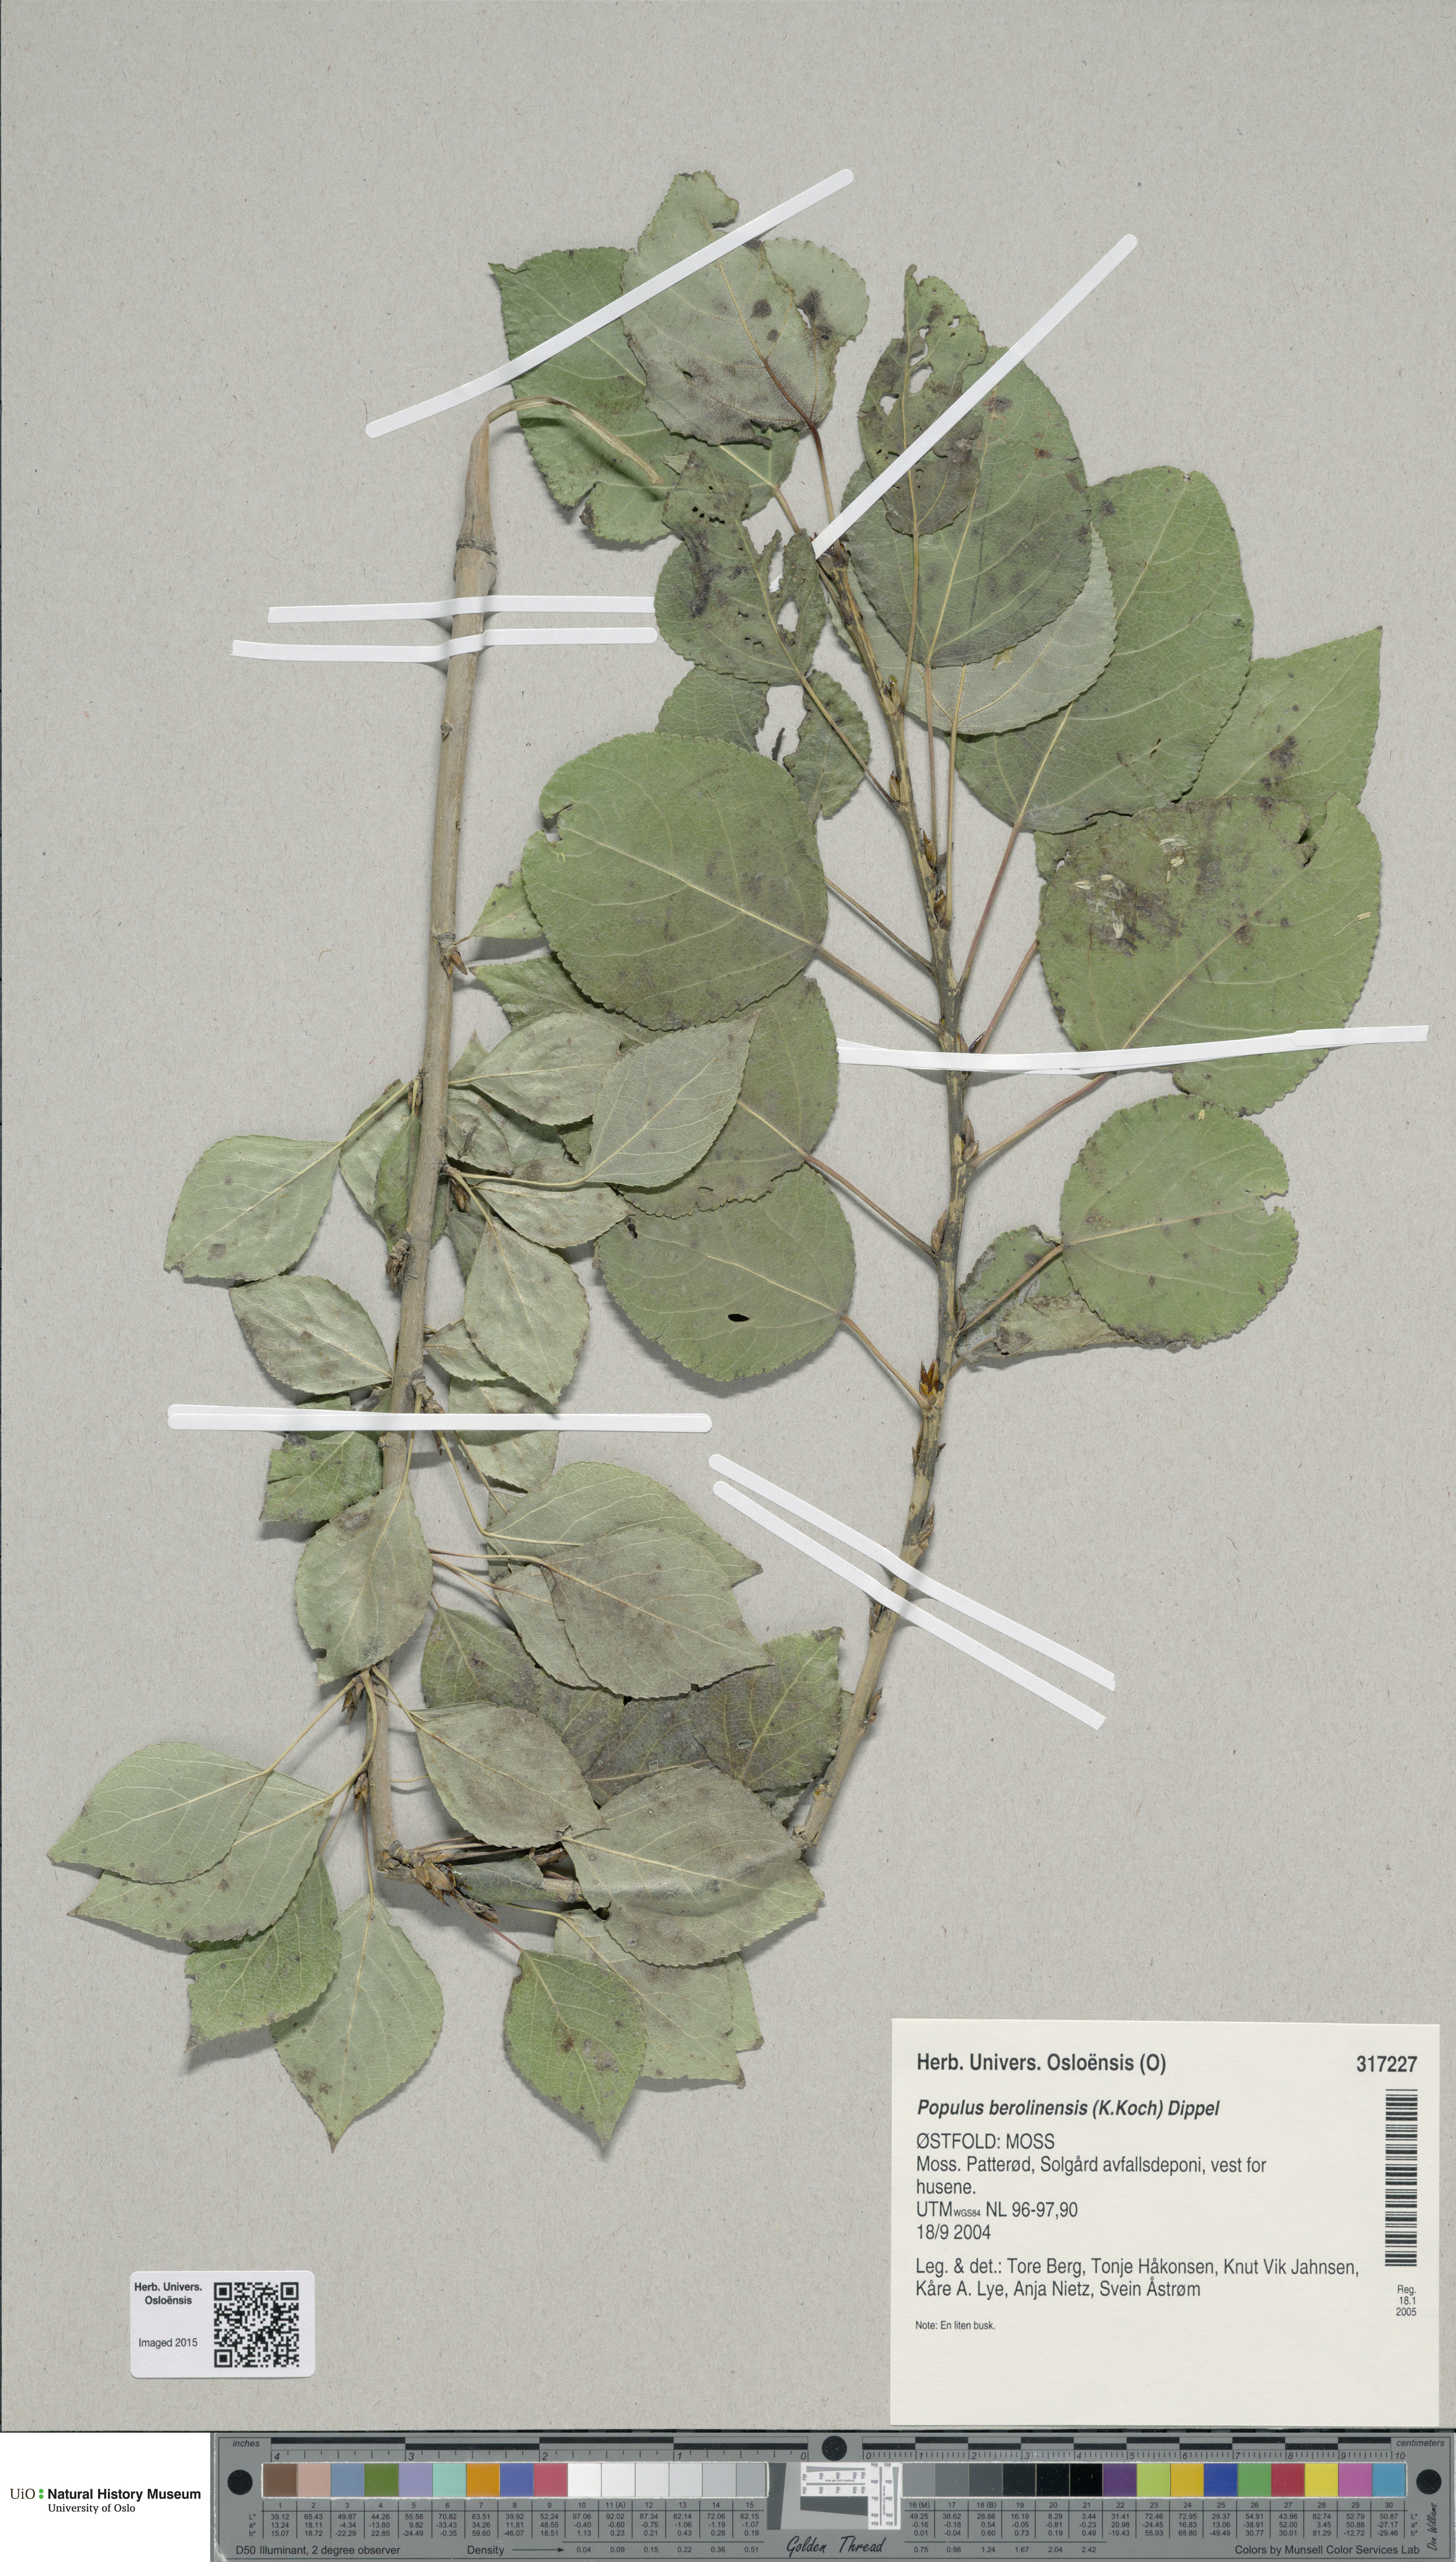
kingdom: Plantae
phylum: Tracheophyta
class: Magnoliopsida
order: Malpighiales
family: Salicaceae
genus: Populus
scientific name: Populus berolinensis
